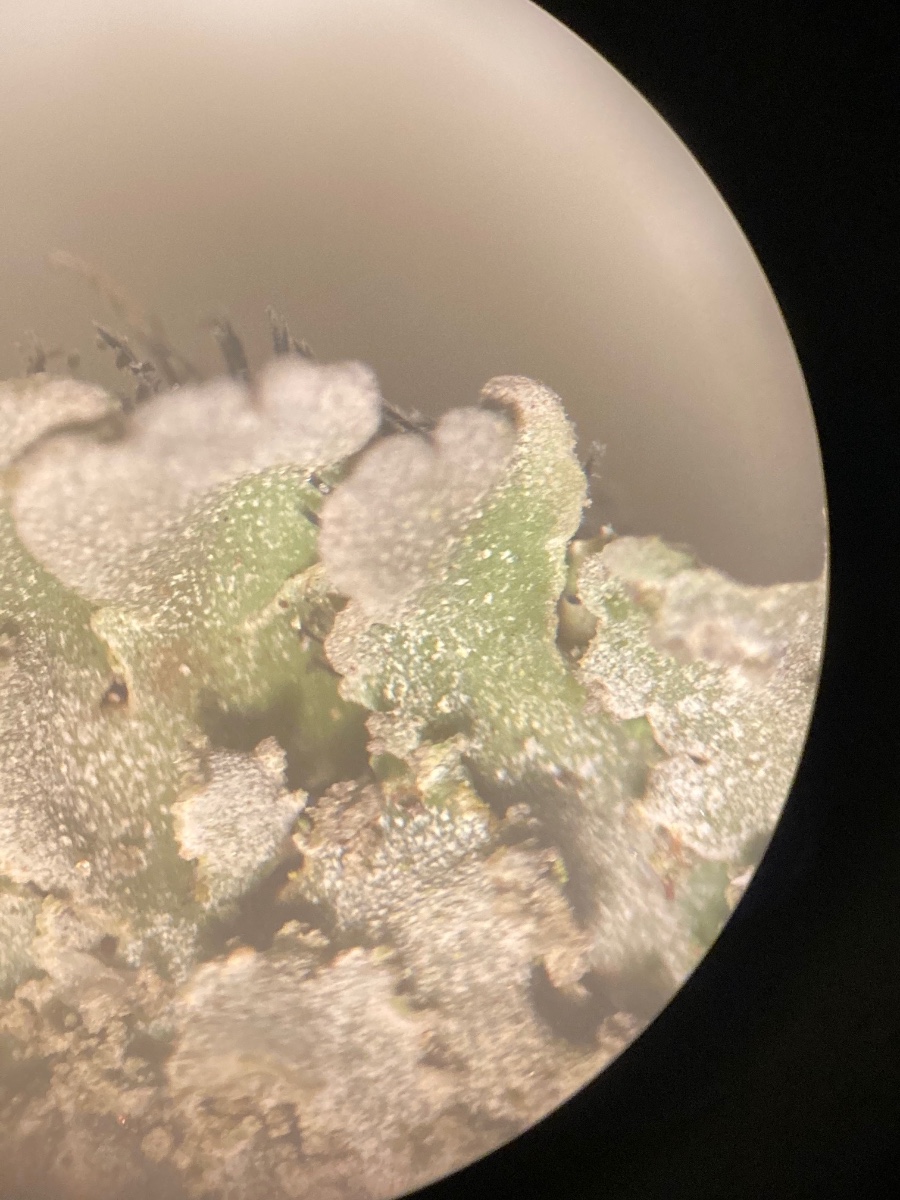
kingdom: Fungi
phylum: Ascomycota
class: Lecanoromycetes
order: Caliciales
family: Physciaceae
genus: Physconia
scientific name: Physconia enteroxantha
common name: grynet dugrosetlav
